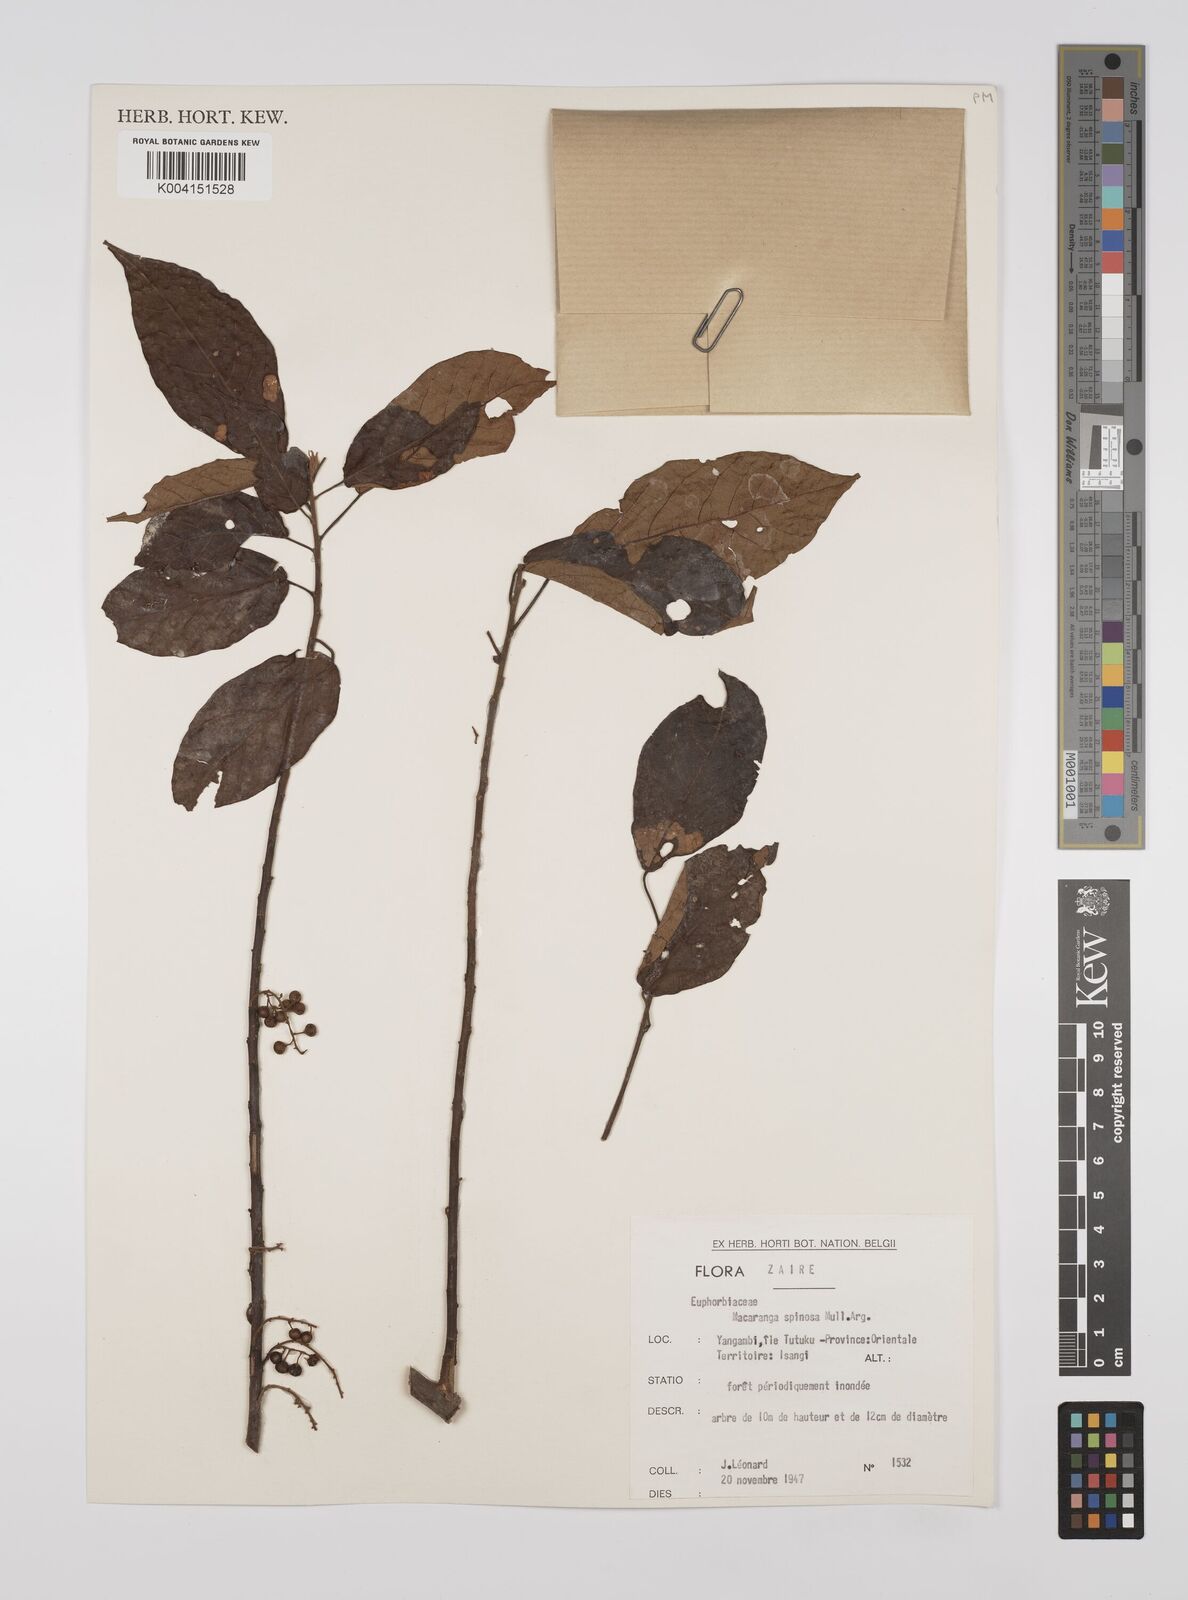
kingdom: Plantae
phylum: Tracheophyta
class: Magnoliopsida
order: Malpighiales
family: Euphorbiaceae
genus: Macaranga
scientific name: Macaranga spinosa
